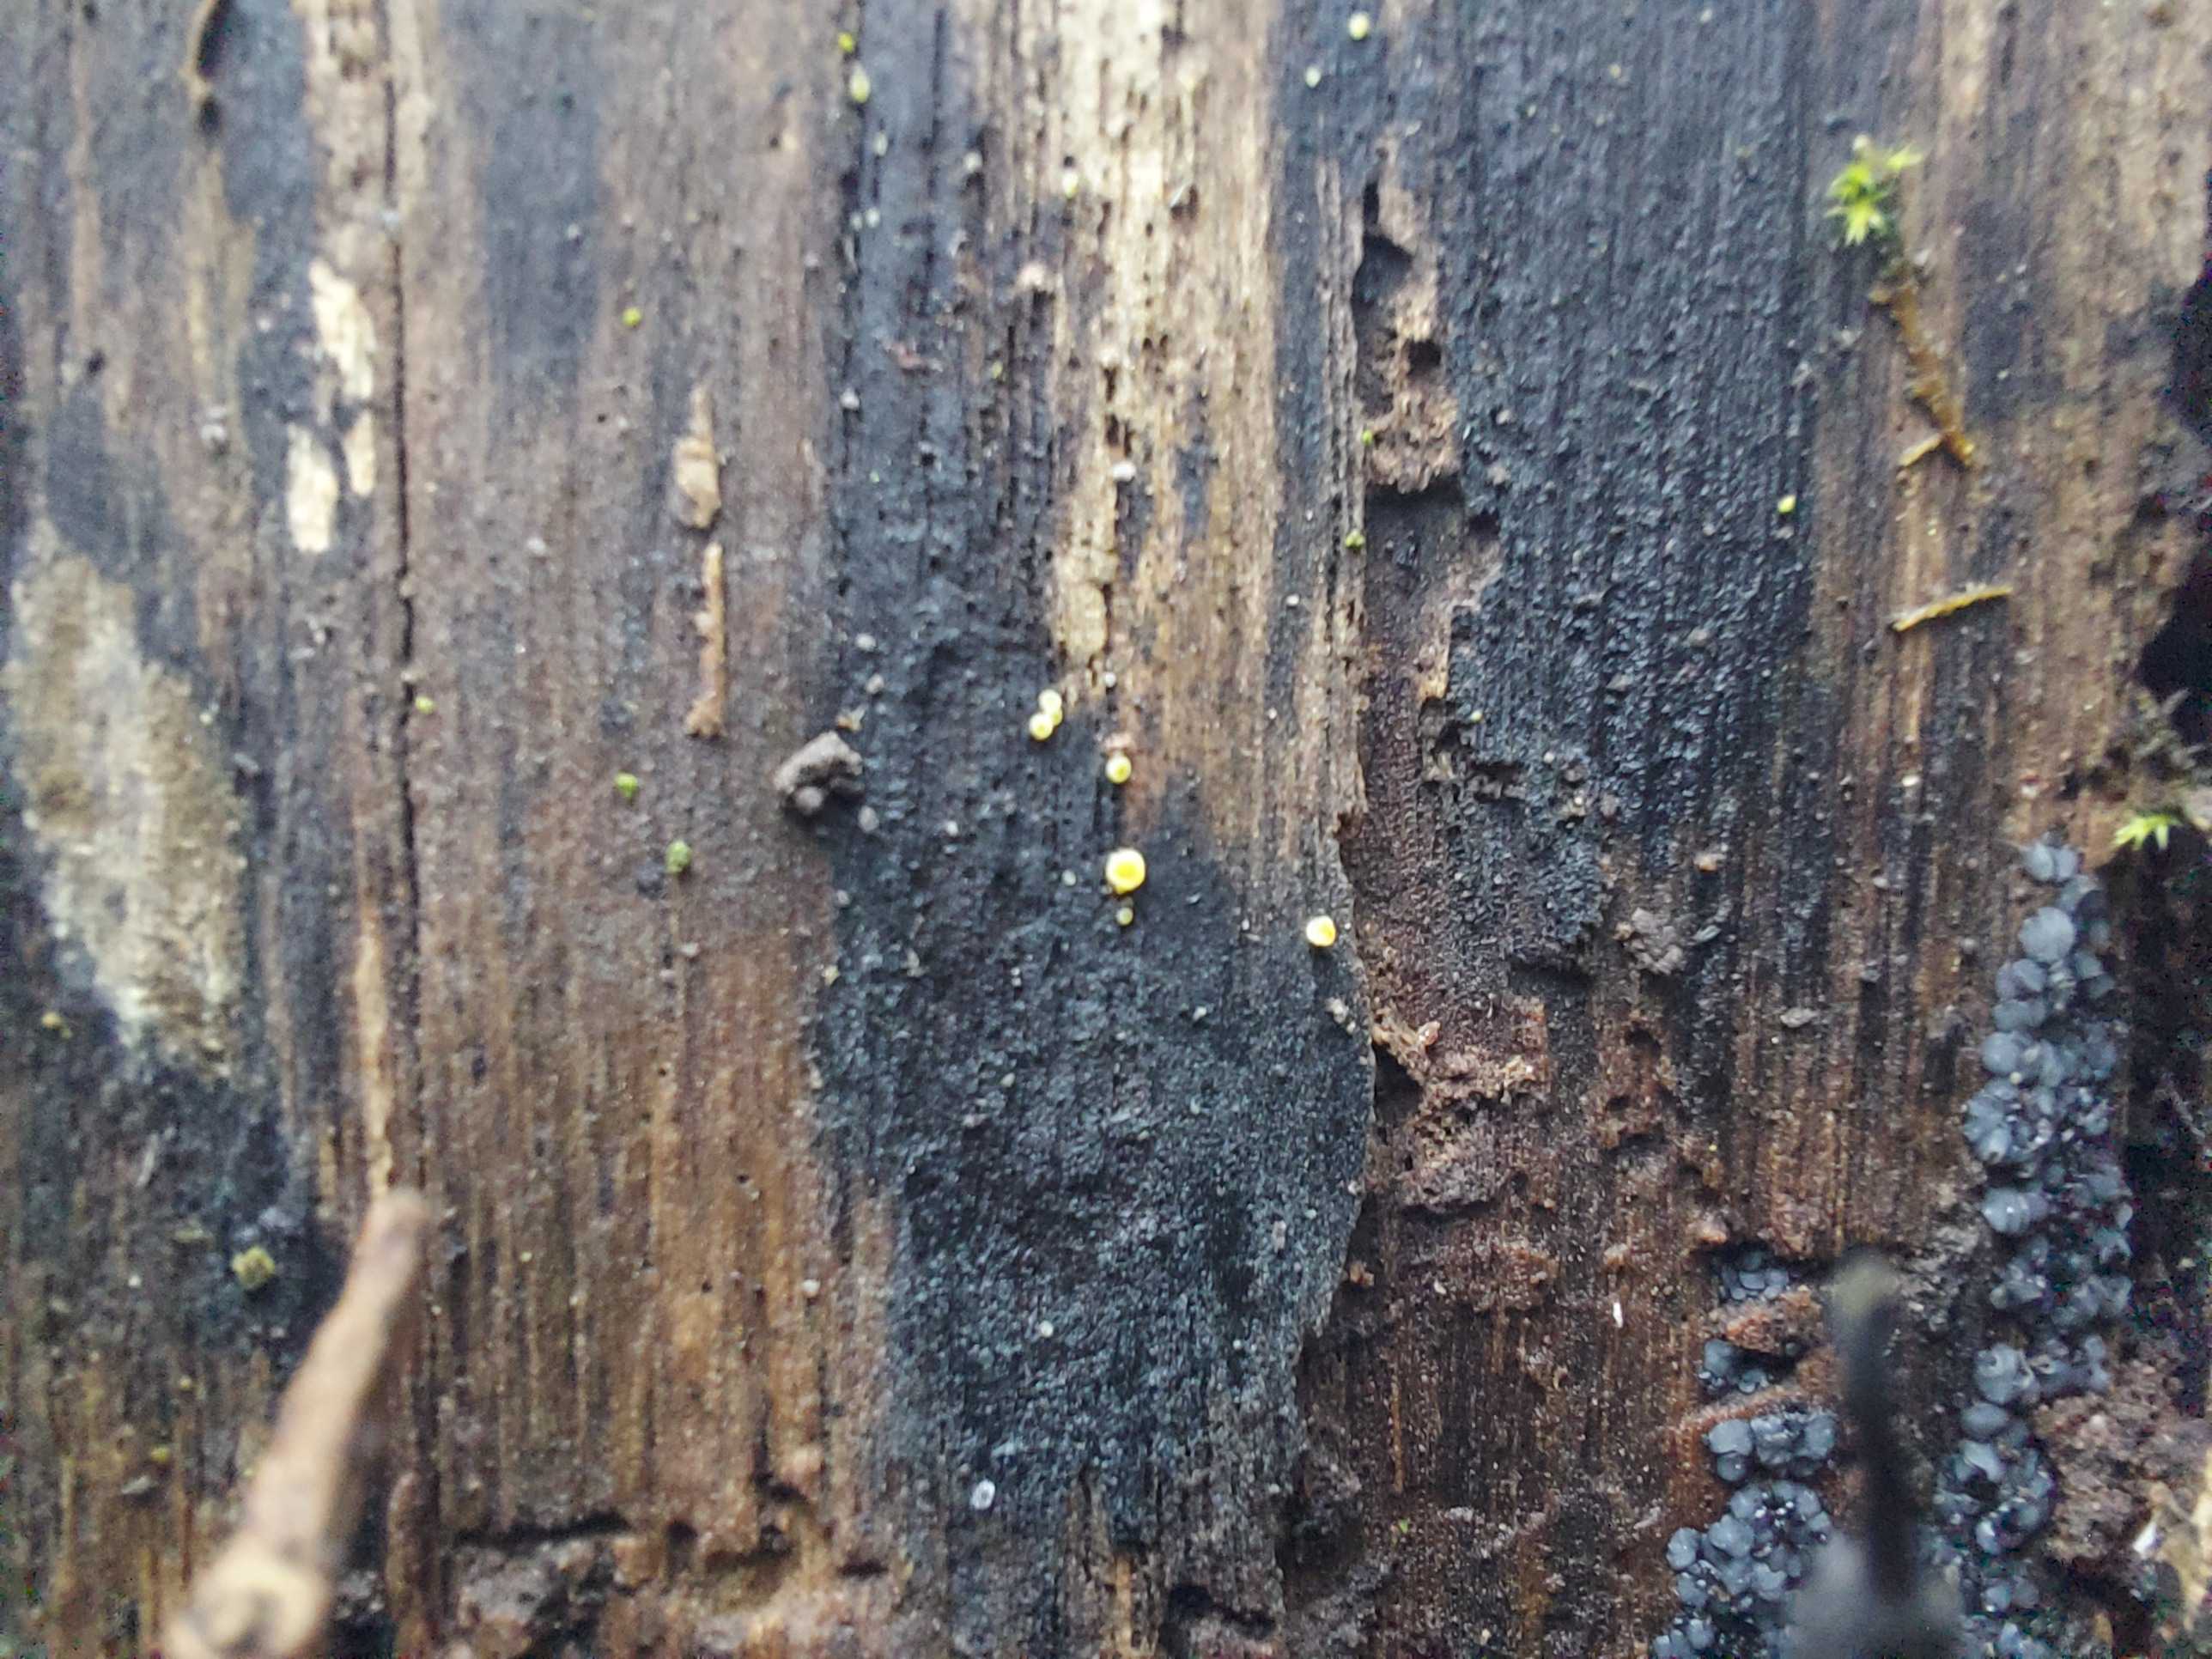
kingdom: Fungi
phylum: Ascomycota
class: Leotiomycetes
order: Helotiales
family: Mollisiaceae
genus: Mollisia
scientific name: Mollisia
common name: gråskive
